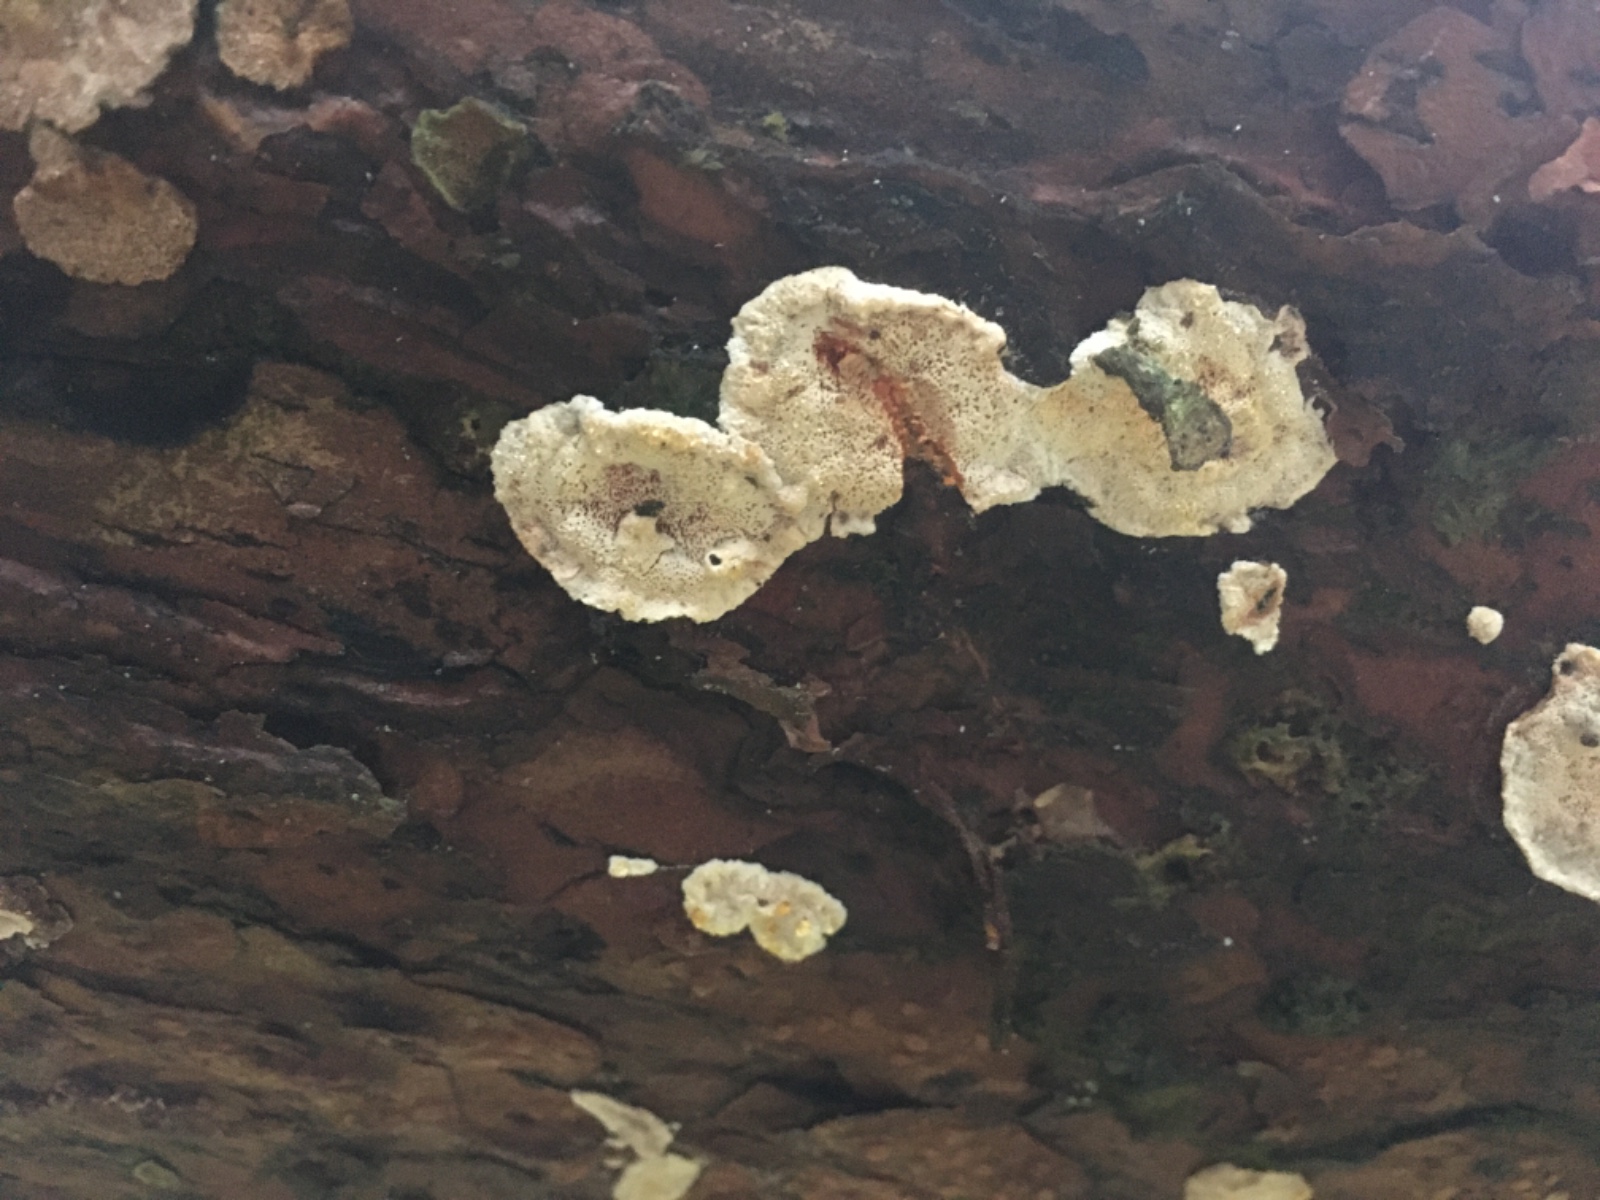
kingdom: Fungi
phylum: Basidiomycota
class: Agaricomycetes
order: Russulales
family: Stereaceae
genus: Stereum
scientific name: Stereum sanguinolentum
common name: blødende lædersvamp
